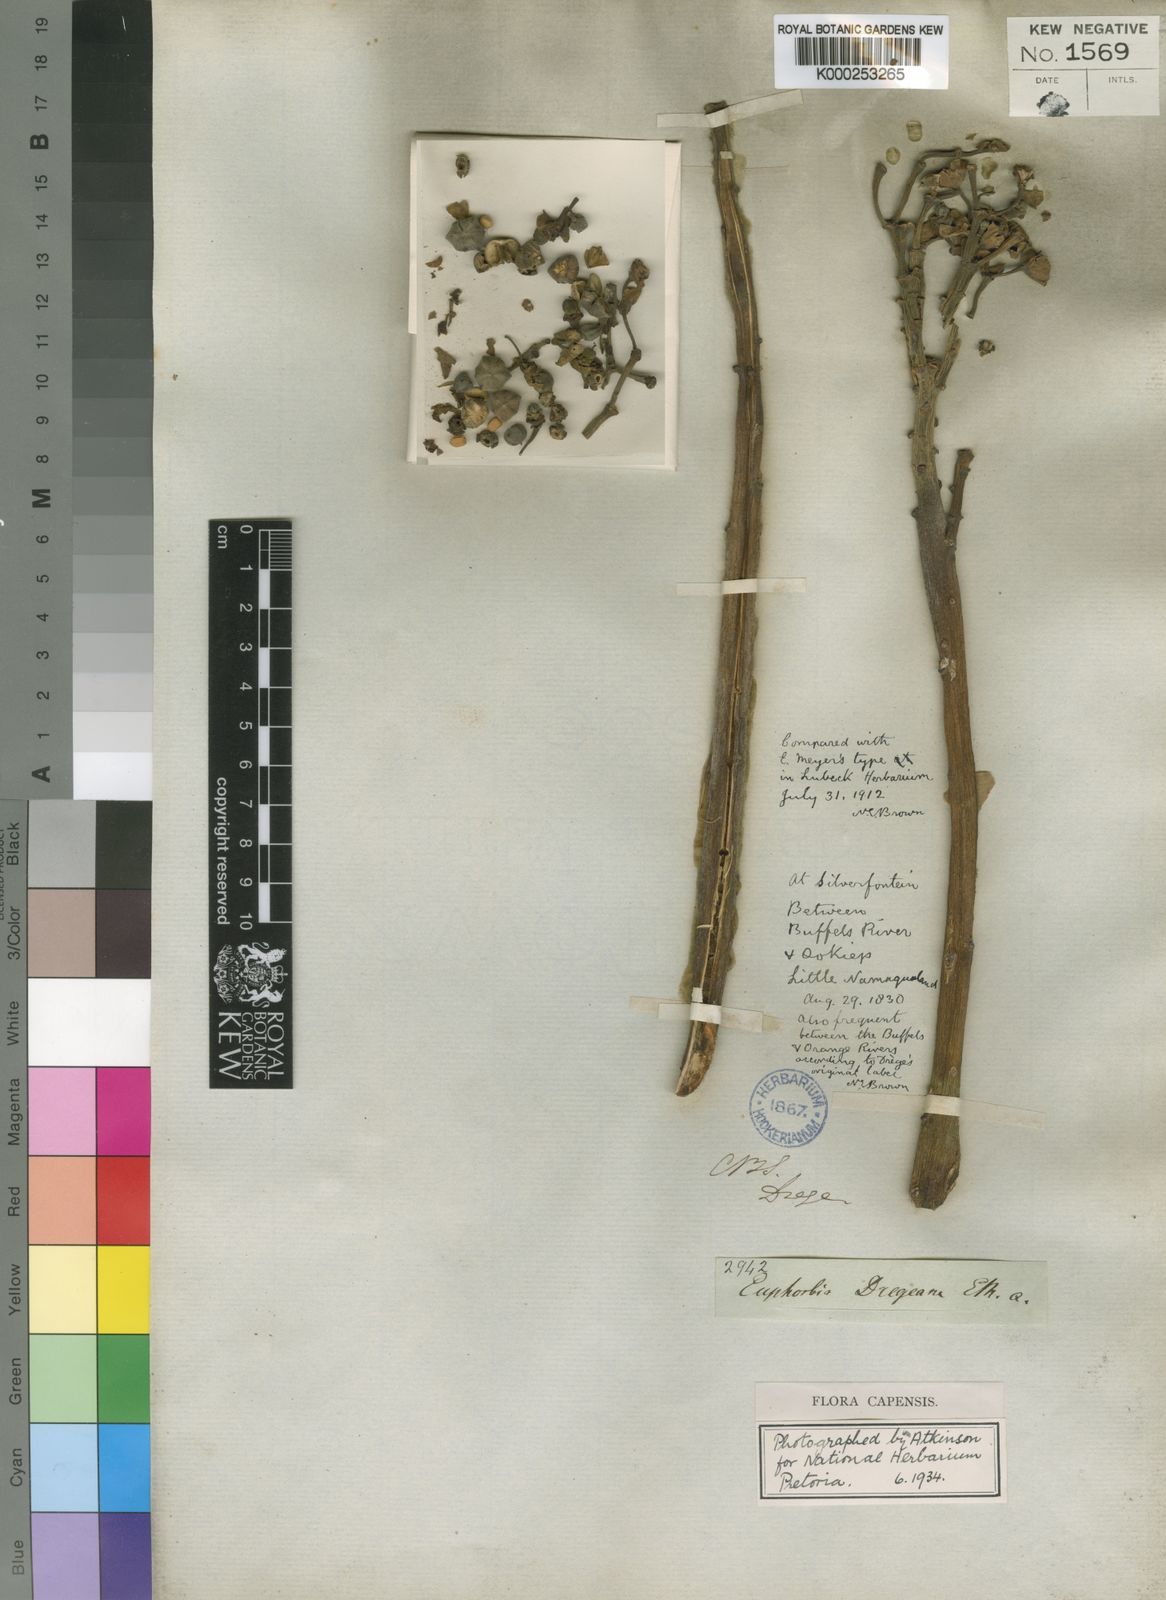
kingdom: Plantae
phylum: Tracheophyta
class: Magnoliopsida
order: Malpighiales
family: Euphorbiaceae
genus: Euphorbia
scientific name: Euphorbia dregeana
